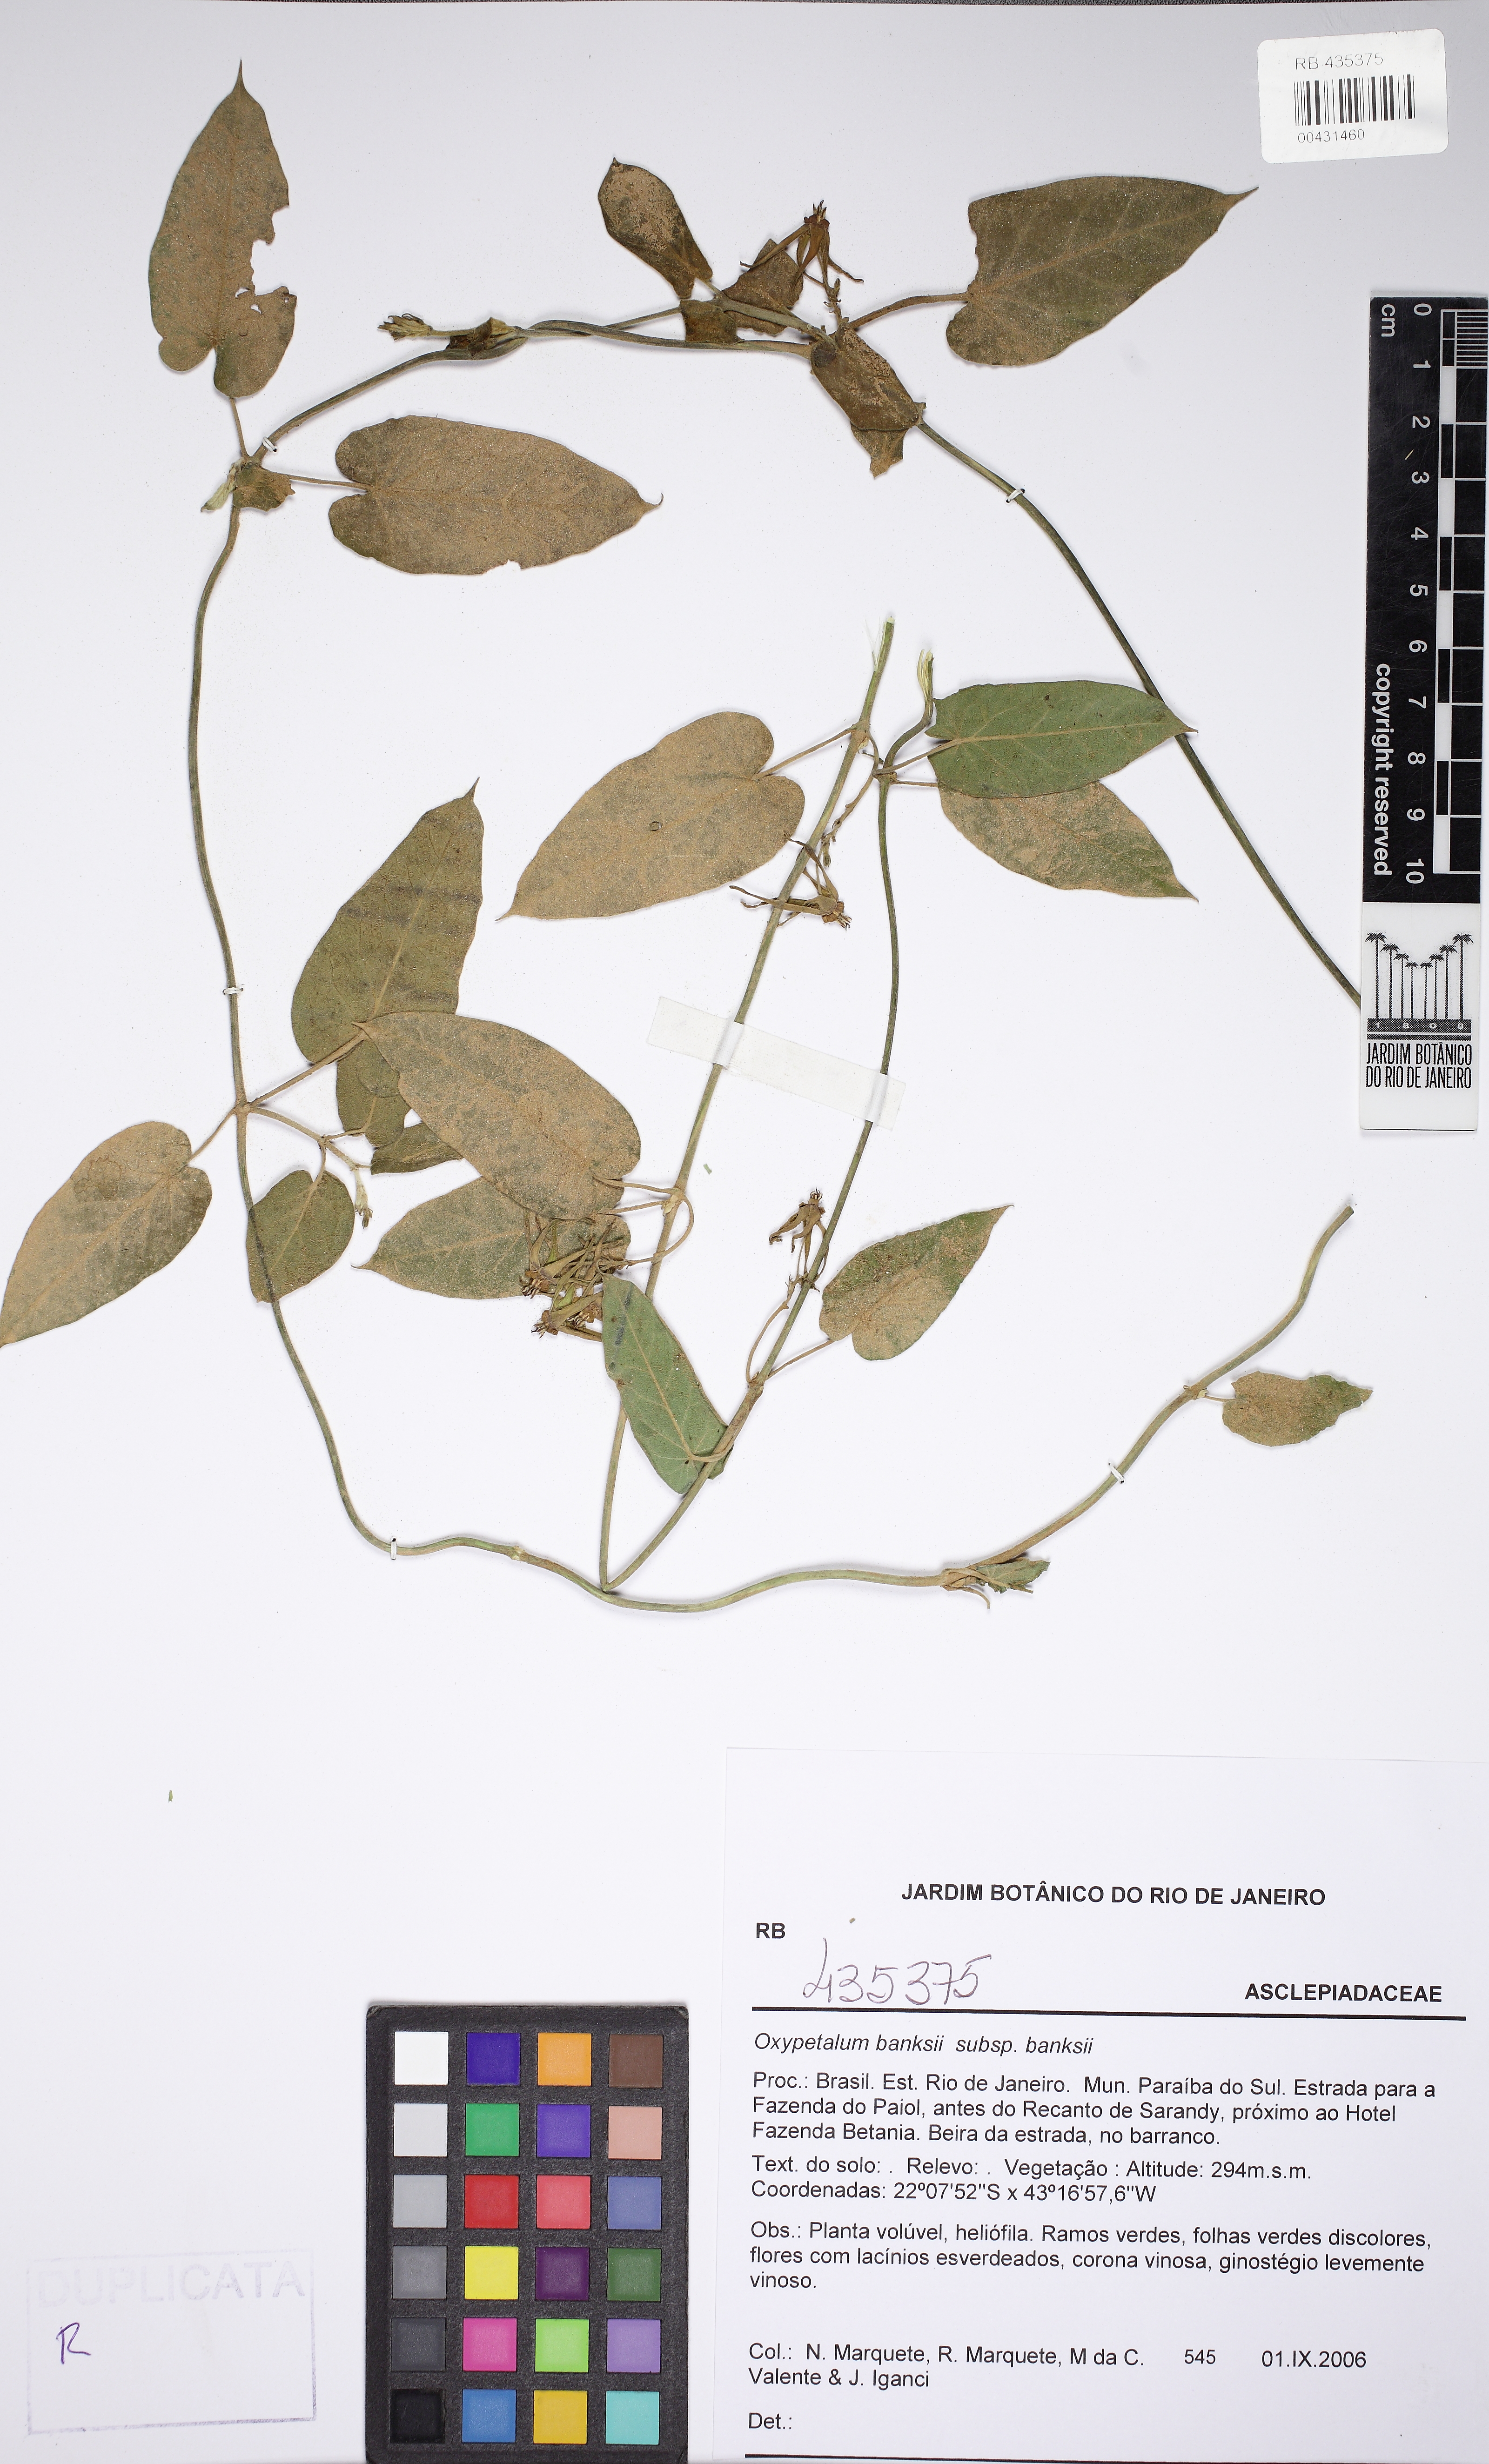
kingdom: Plantae
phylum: Tracheophyta
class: Magnoliopsida
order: Gentianales
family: Apocynaceae
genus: Oxypetalum
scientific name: Oxypetalum banksii
